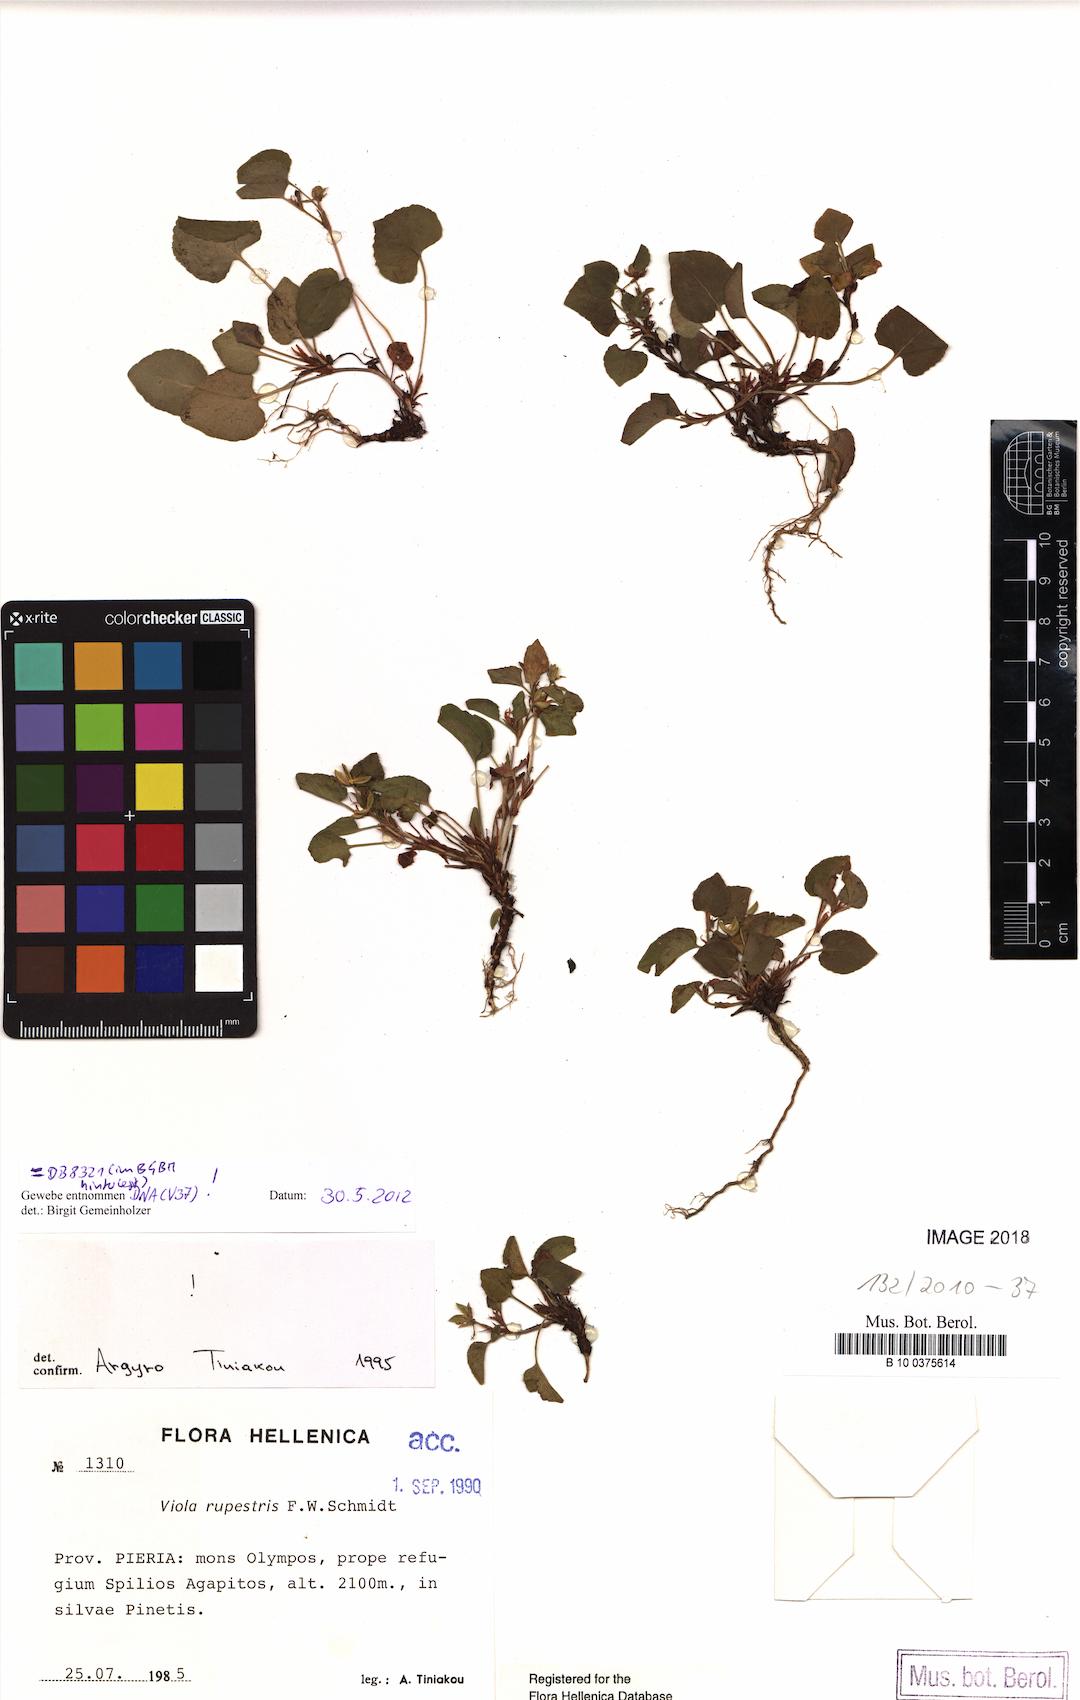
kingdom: Plantae
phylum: Tracheophyta
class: Magnoliopsida
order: Malpighiales
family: Violaceae
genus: Viola
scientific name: Viola rupestris
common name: Teesdale violet
